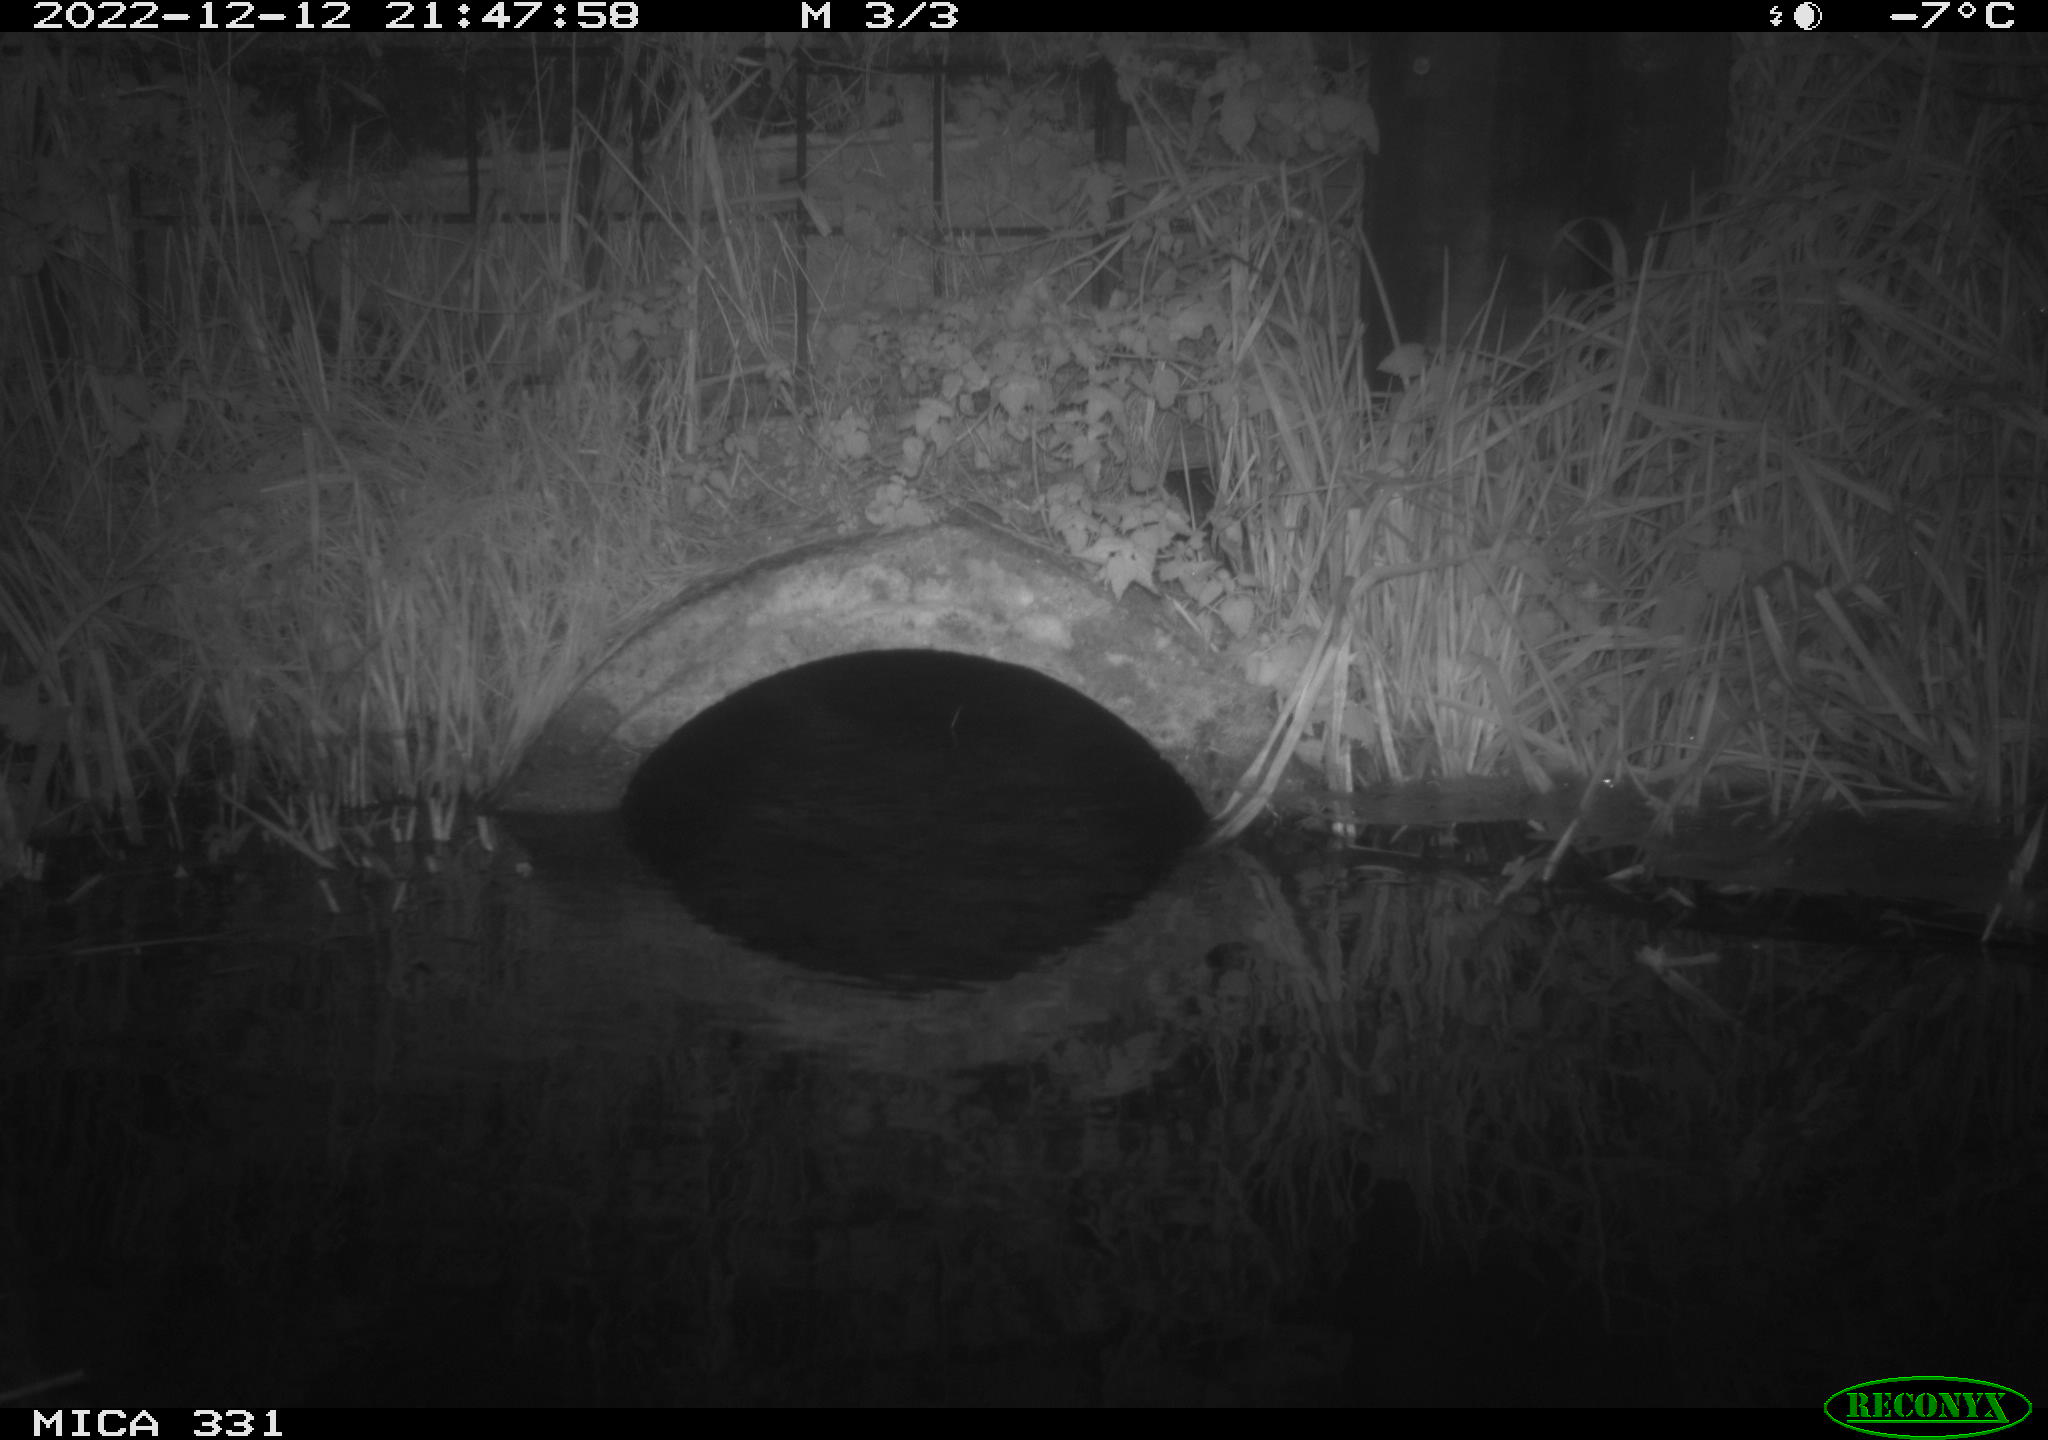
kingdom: Animalia
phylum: Chordata
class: Mammalia
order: Rodentia
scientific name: Rodentia
